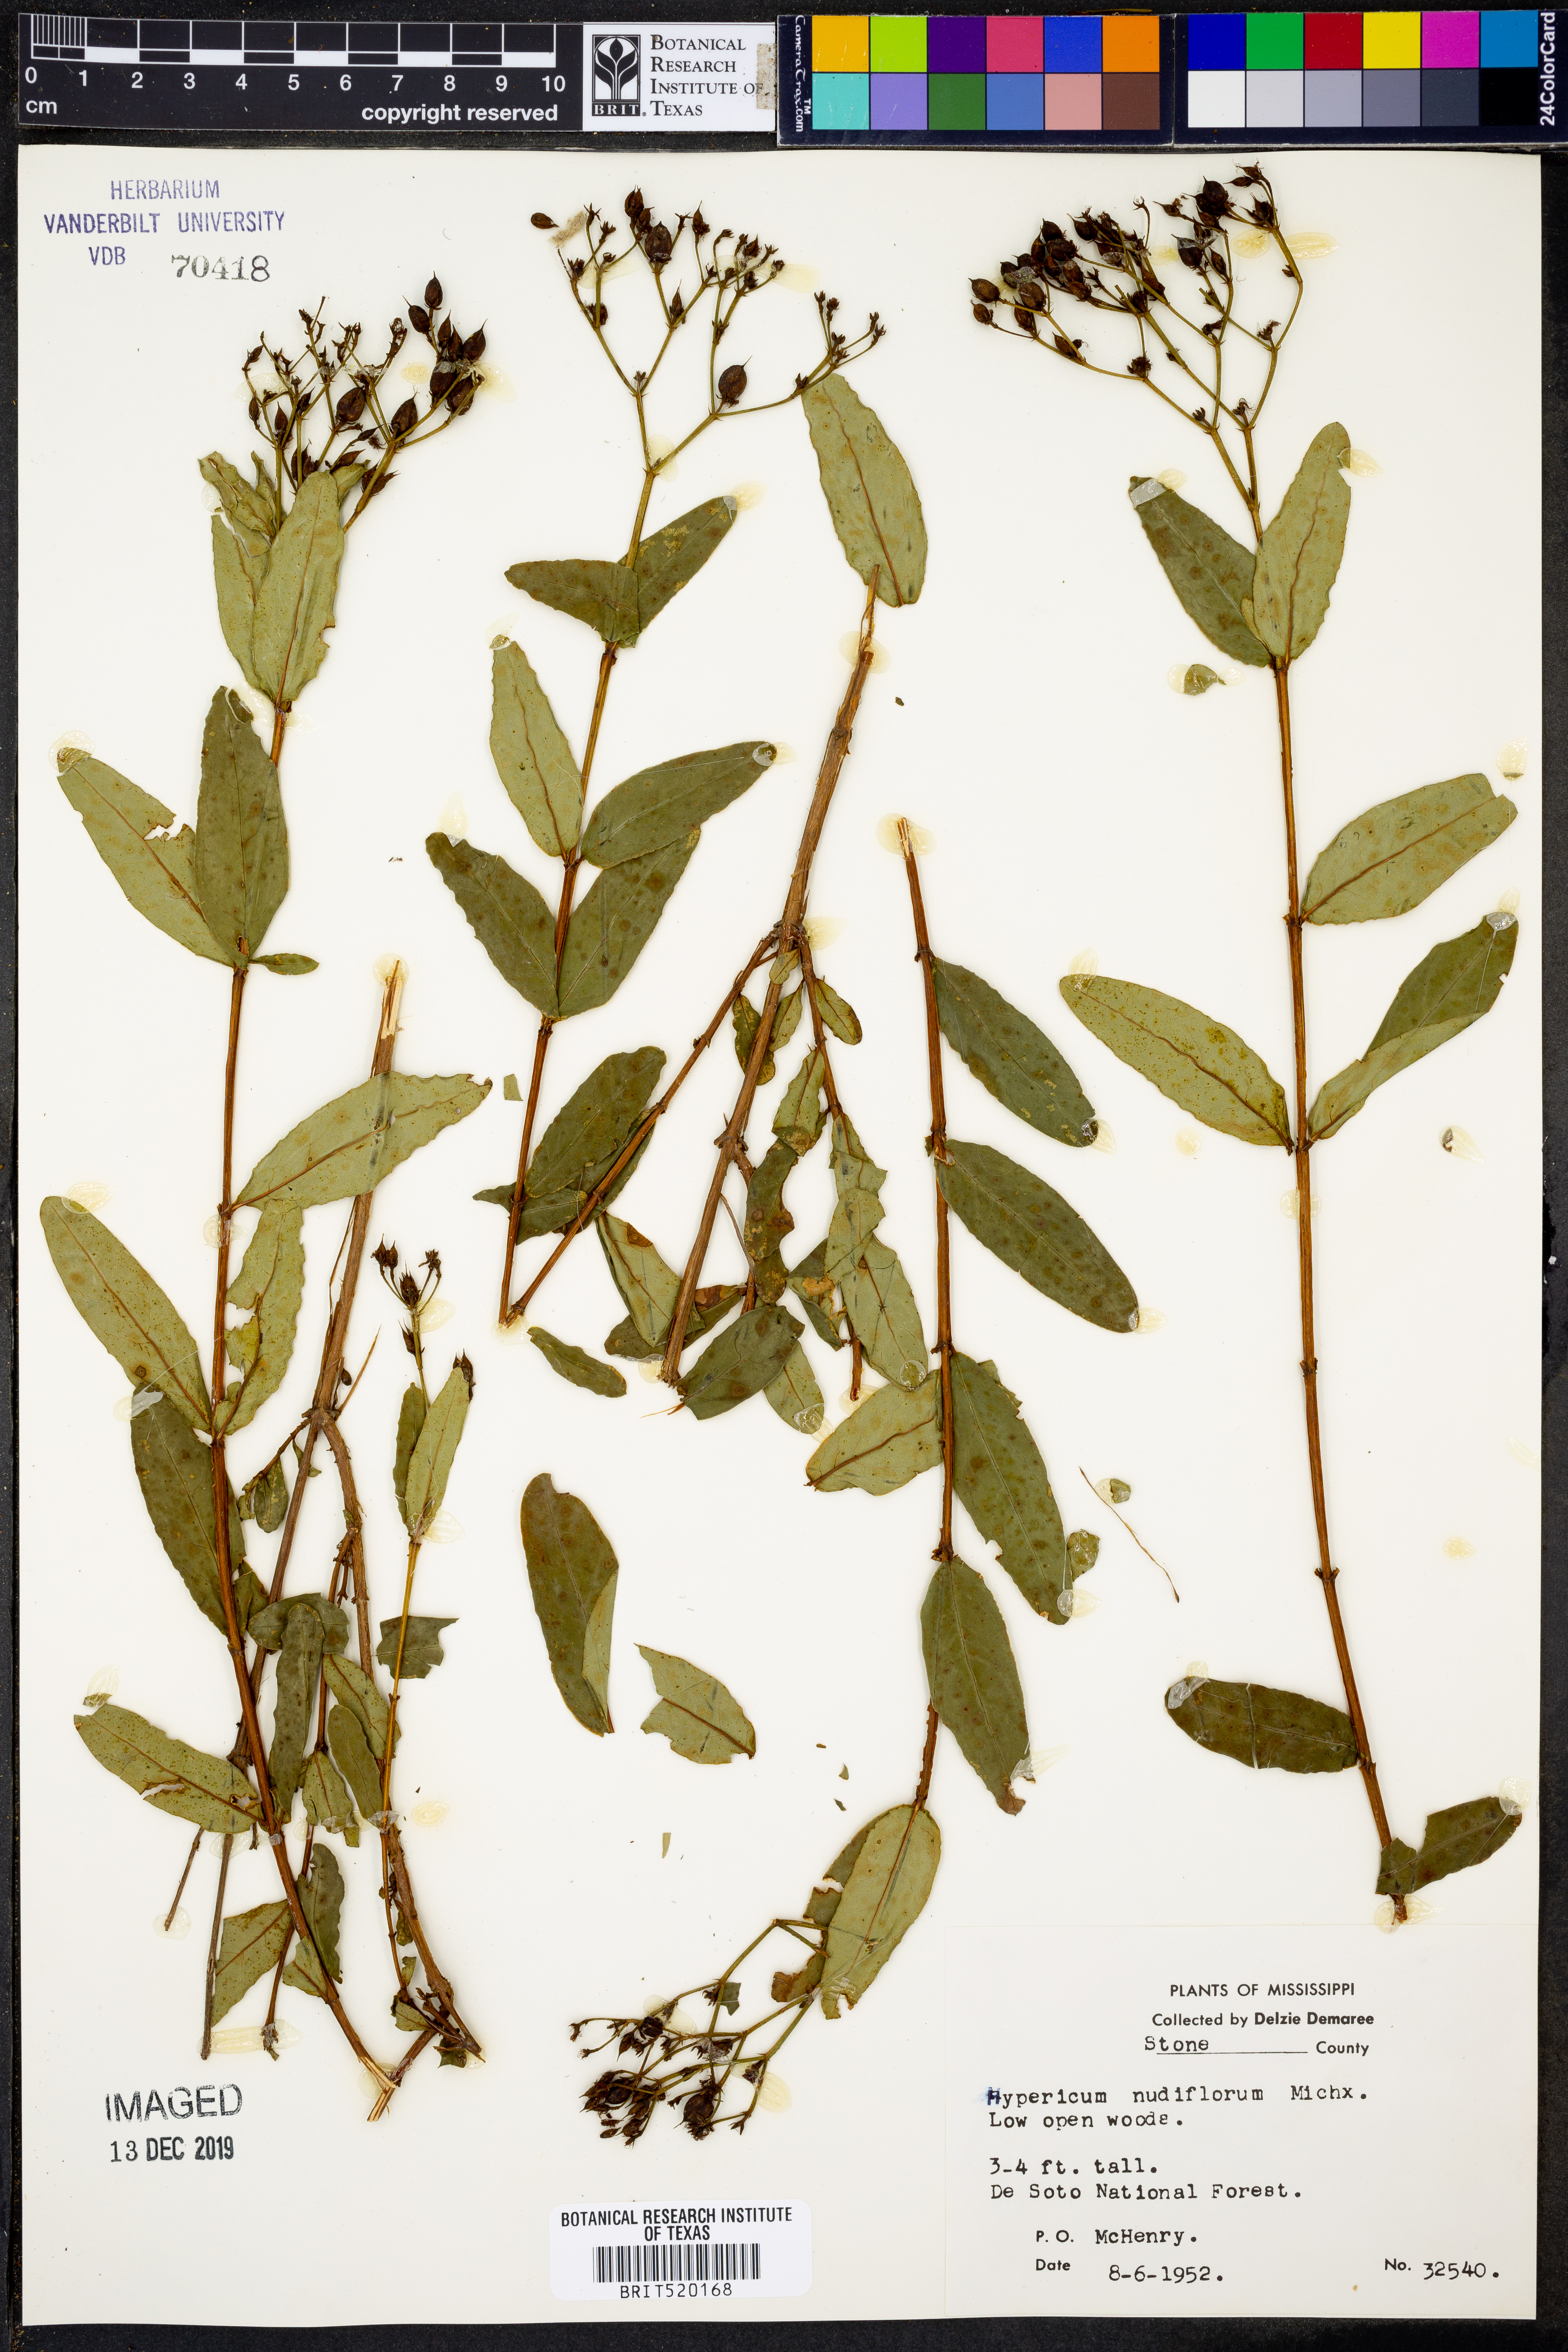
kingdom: Plantae
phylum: Tracheophyta
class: Magnoliopsida
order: Malpighiales
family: Hypericaceae
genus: Hypericum
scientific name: Hypericum nudiflorum
